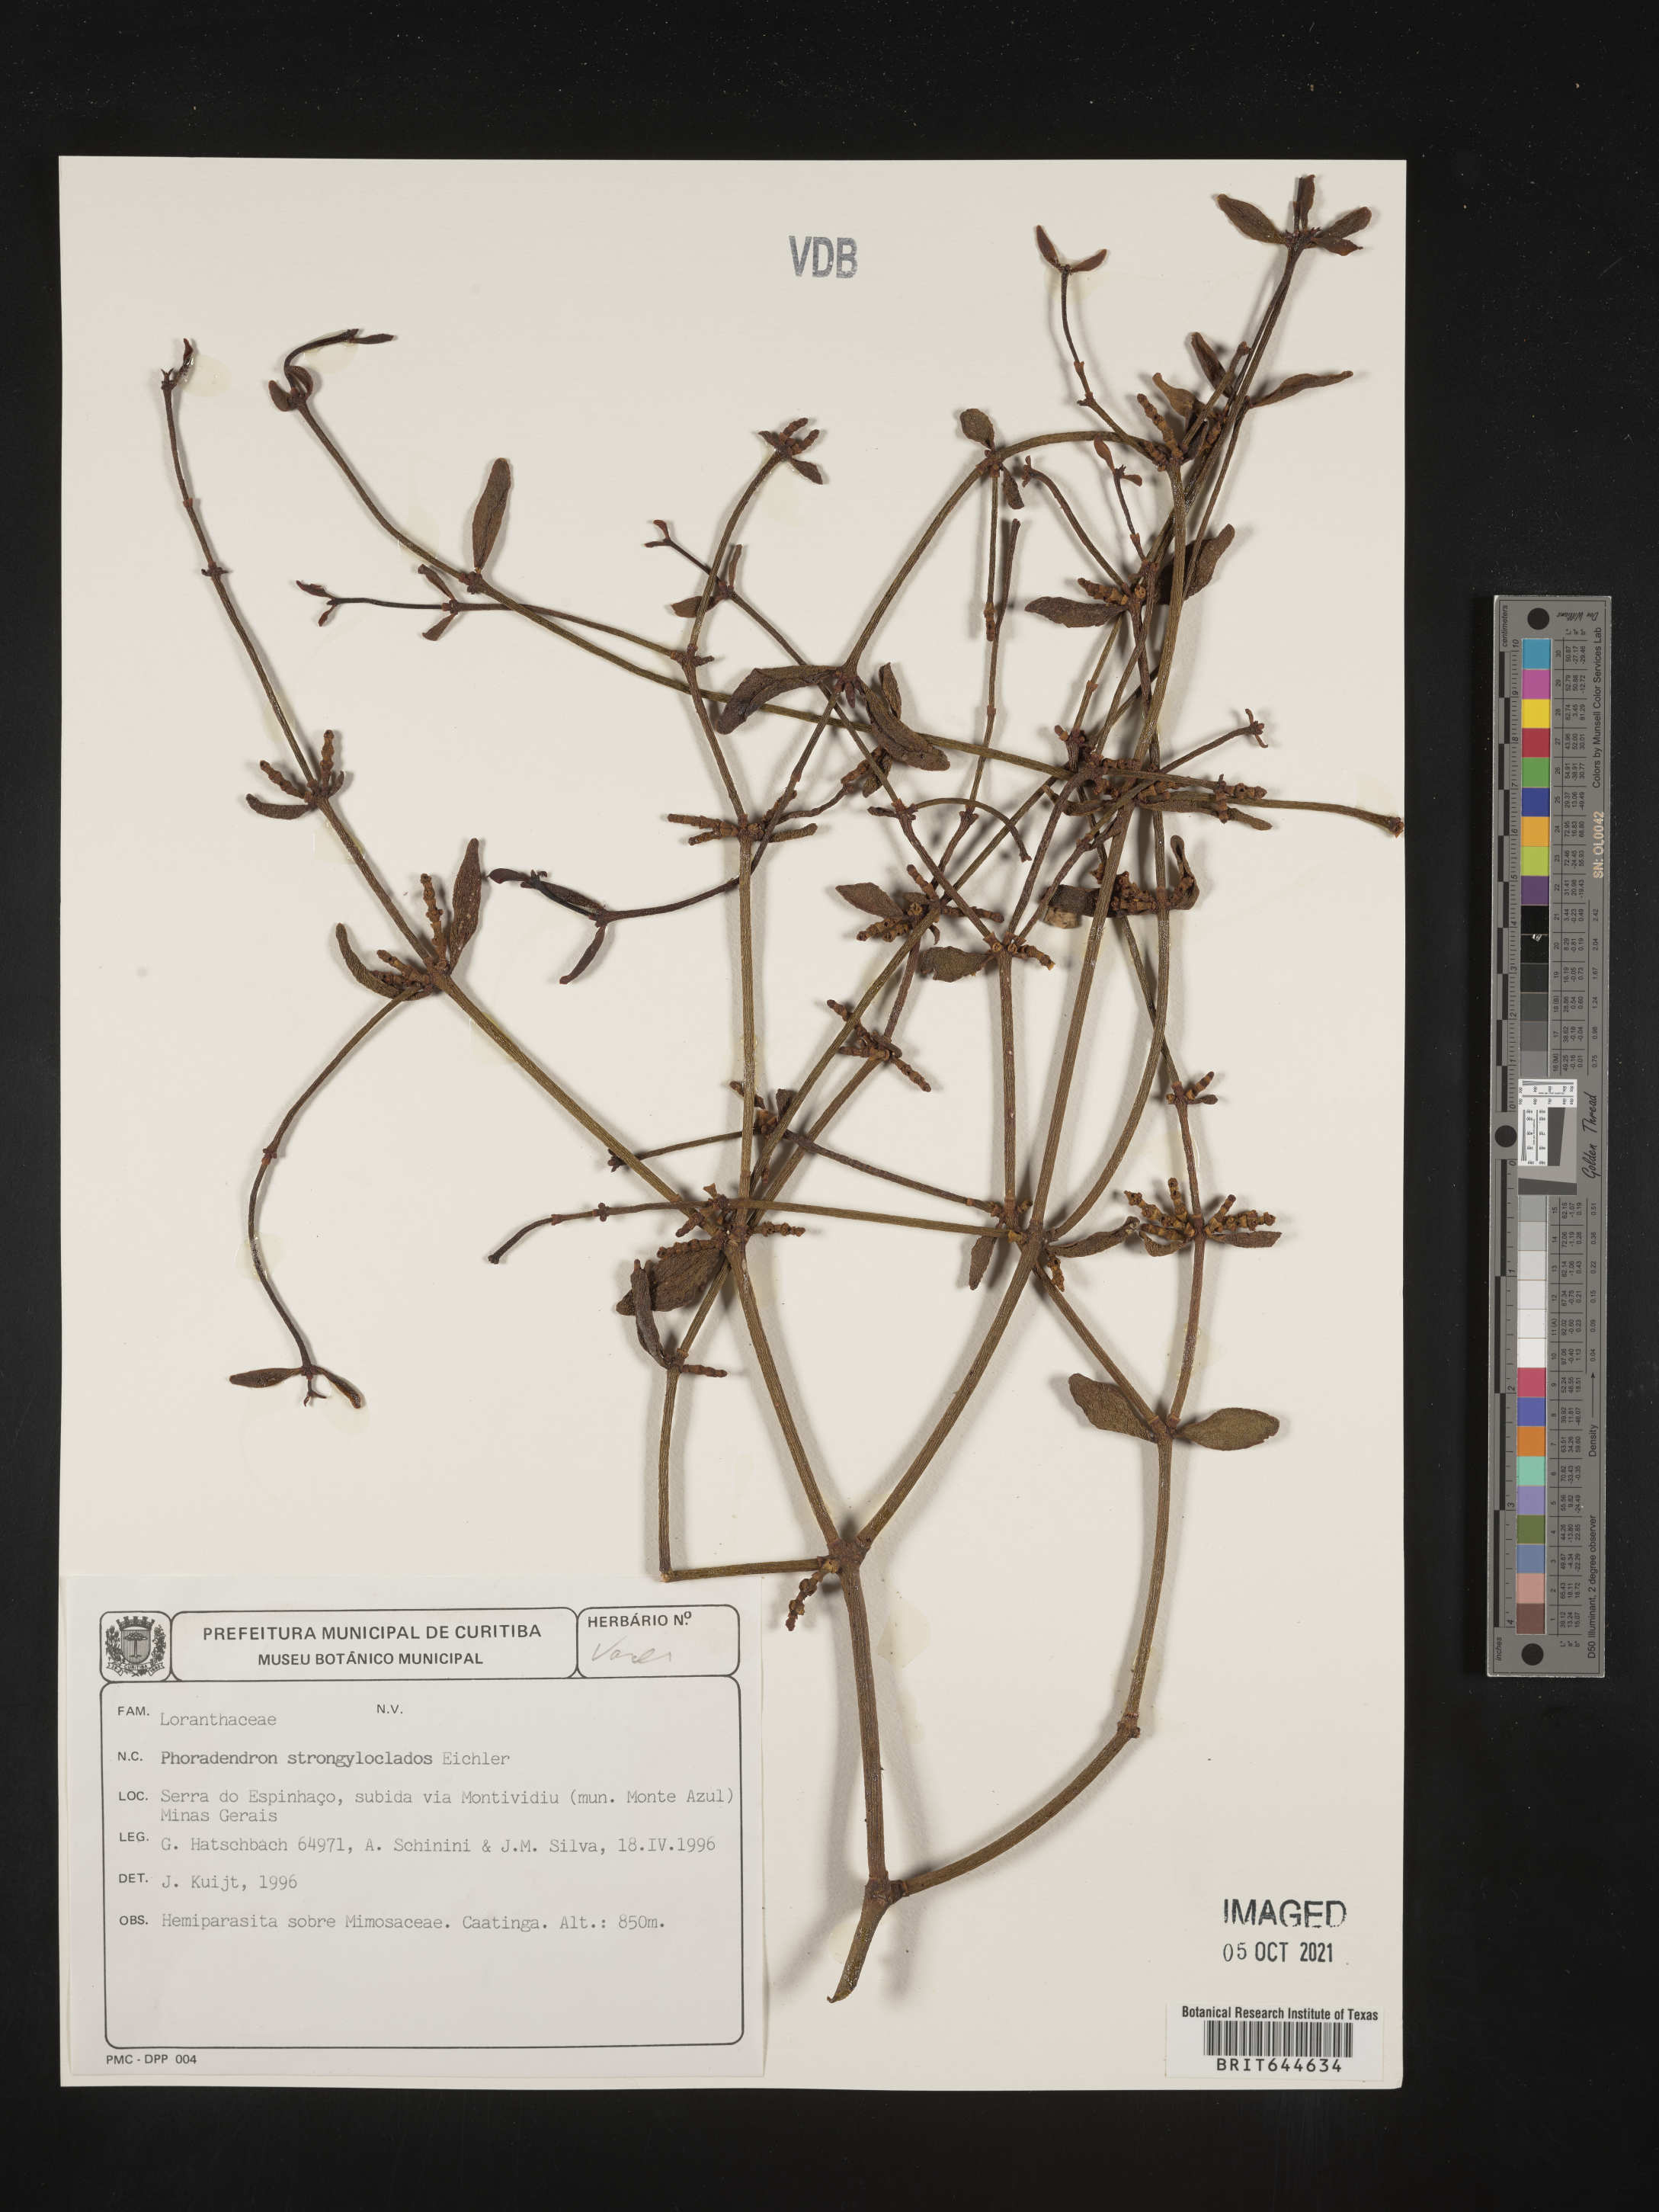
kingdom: Plantae
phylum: Tracheophyta
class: Magnoliopsida
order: Santalales
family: Viscaceae
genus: Phoradendron
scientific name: Phoradendron
